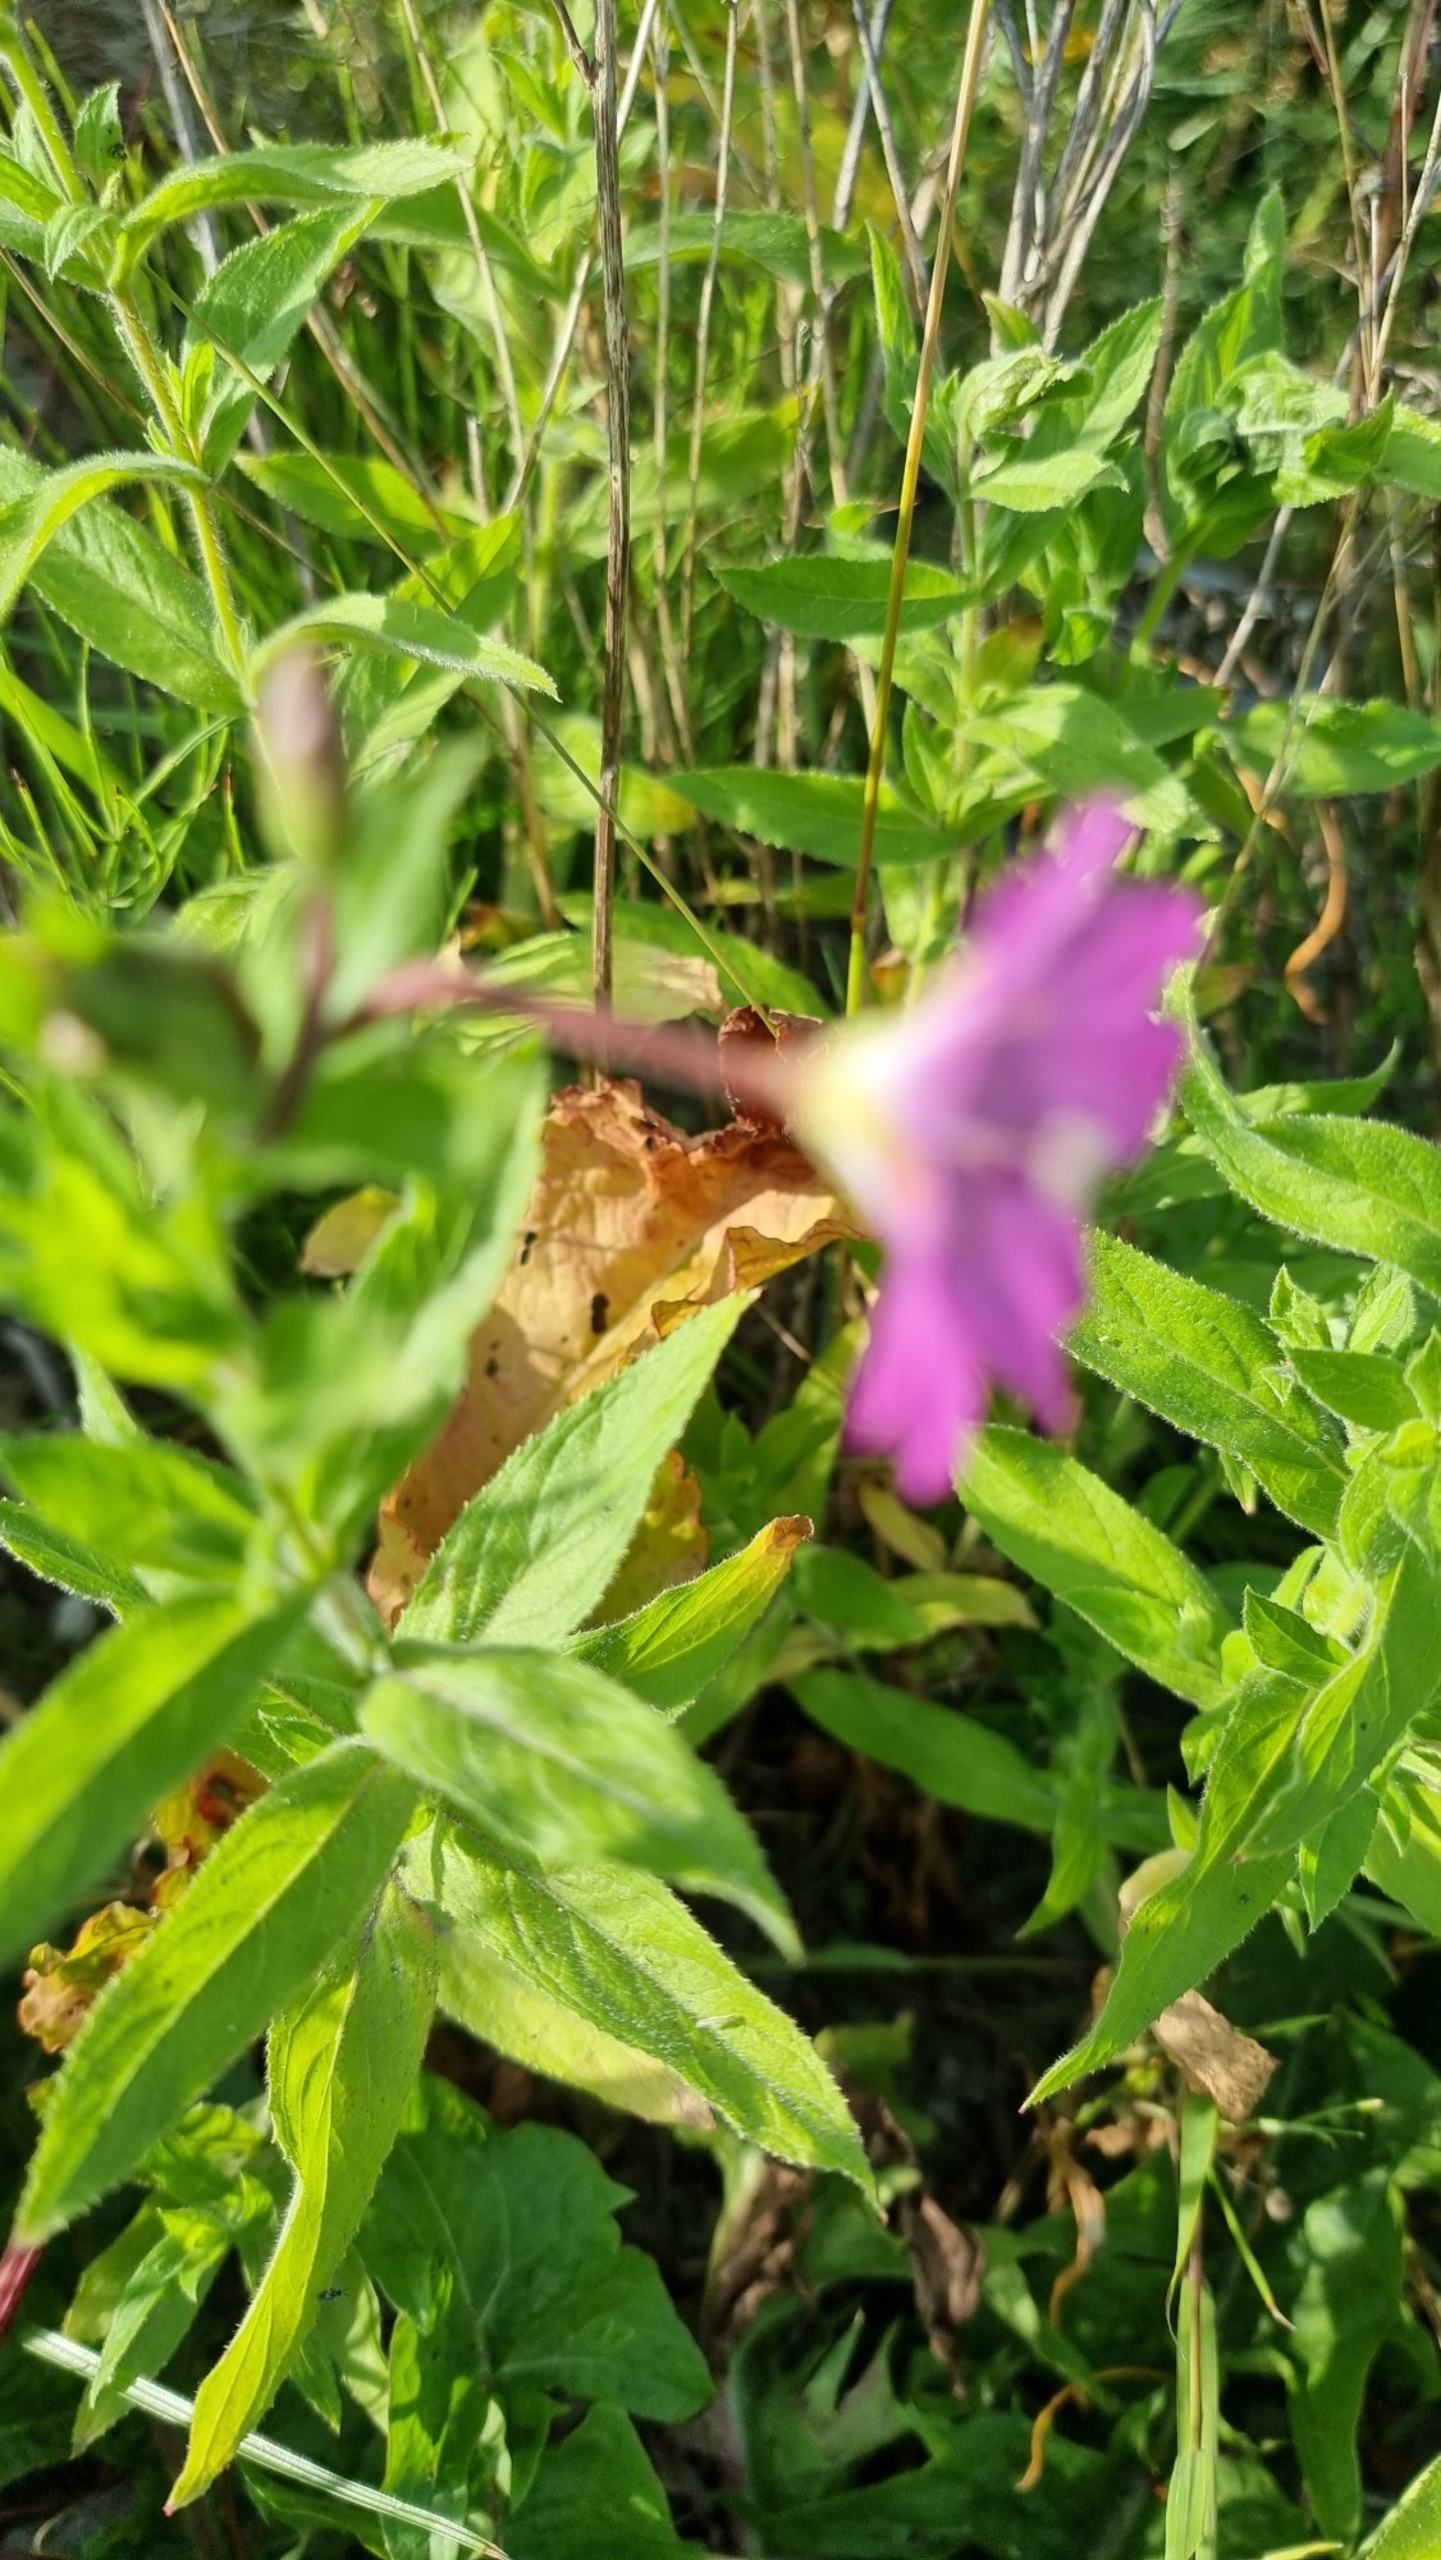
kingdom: Plantae
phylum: Tracheophyta
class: Magnoliopsida
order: Myrtales
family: Onagraceae
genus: Epilobium
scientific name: Epilobium hirsutum
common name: Lådden dueurt
